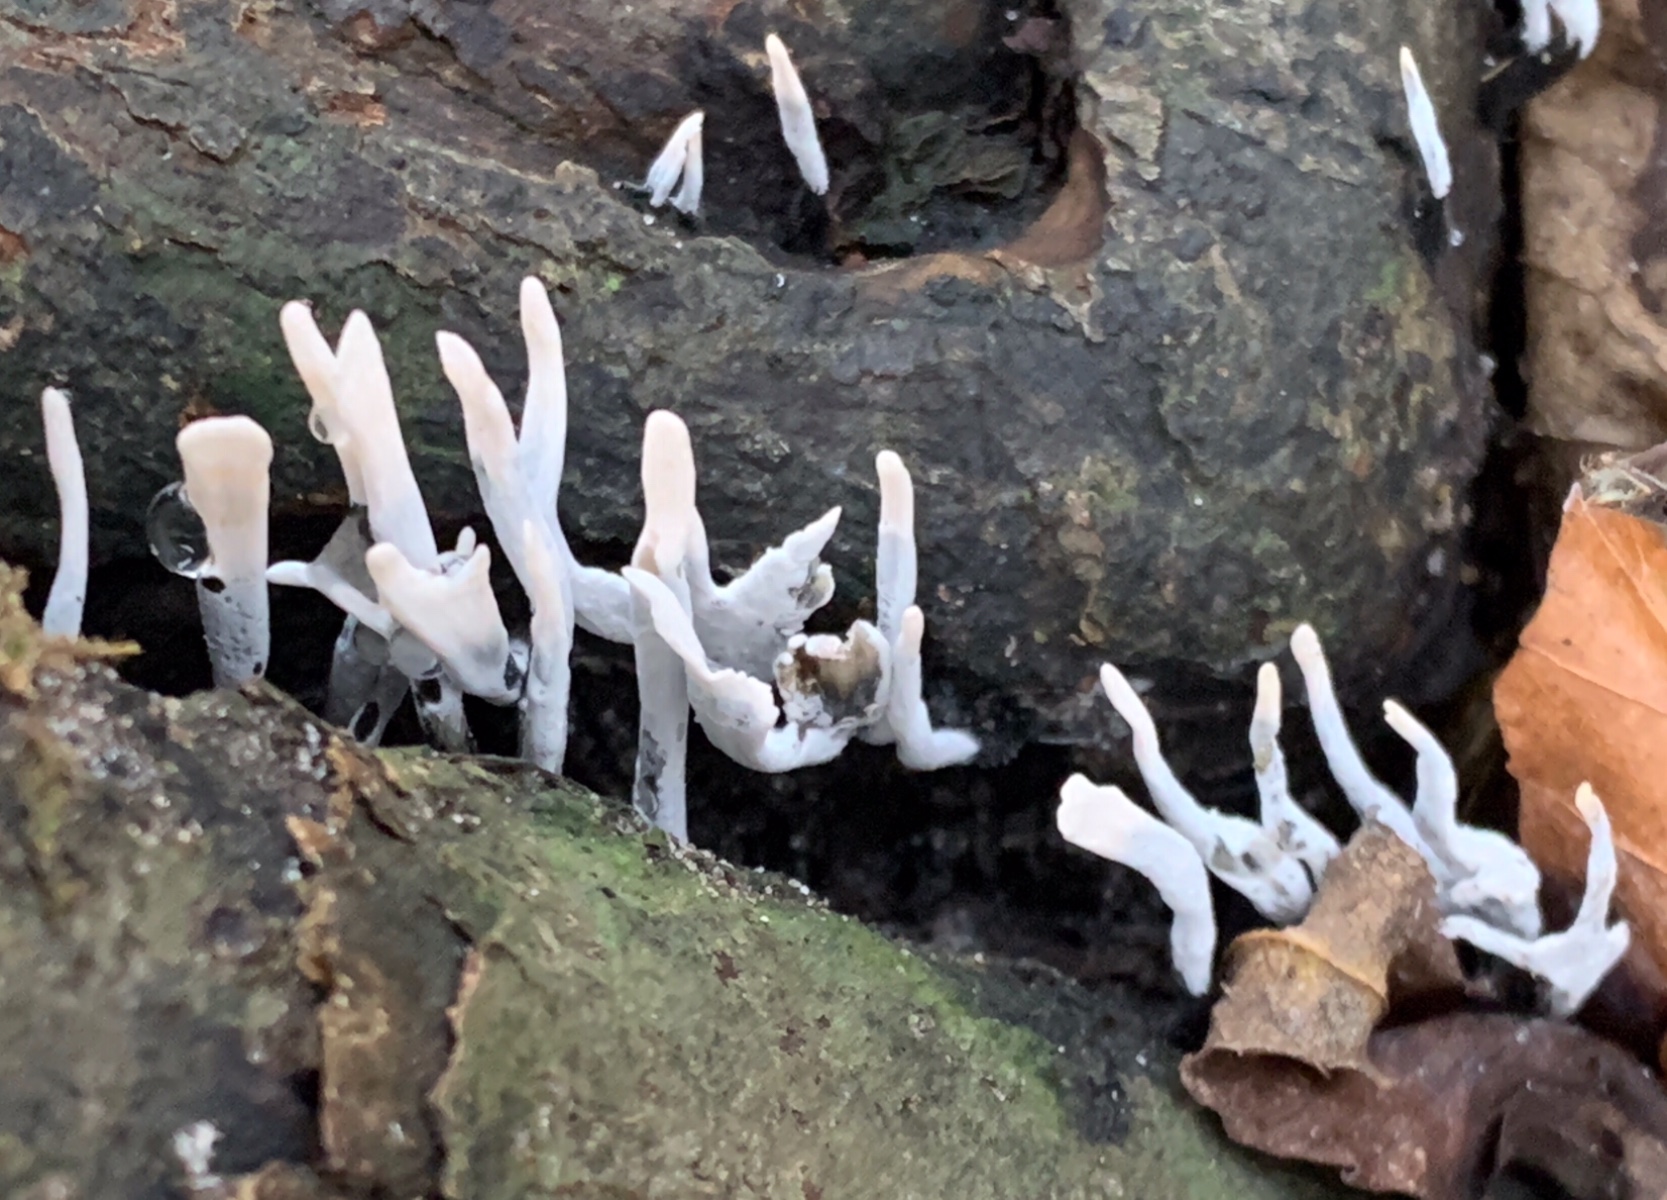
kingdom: Fungi
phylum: Ascomycota
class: Sordariomycetes
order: Xylariales
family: Xylariaceae
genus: Xylaria
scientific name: Xylaria hypoxylon
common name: grenet stødsvamp
